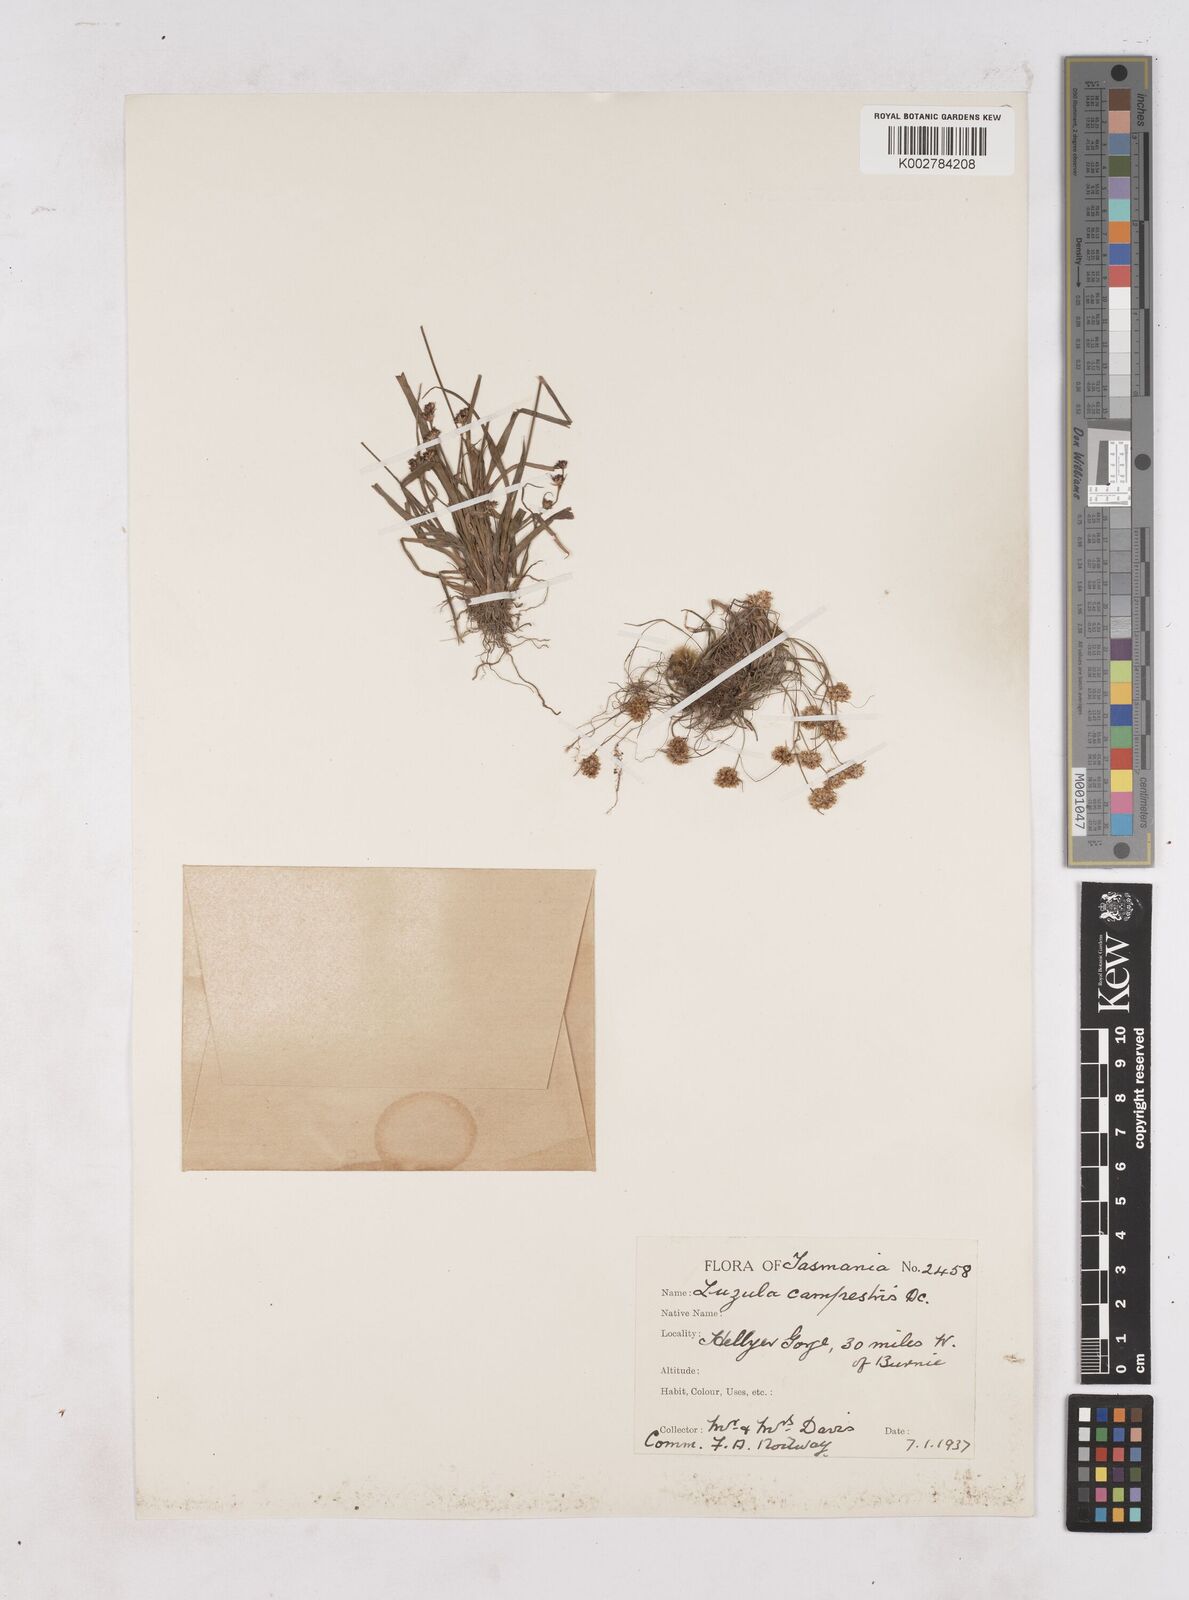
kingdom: Plantae
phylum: Tracheophyta
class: Liliopsida
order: Poales
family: Juncaceae
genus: Luzula
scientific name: Luzula campestris
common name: Field wood-rush
